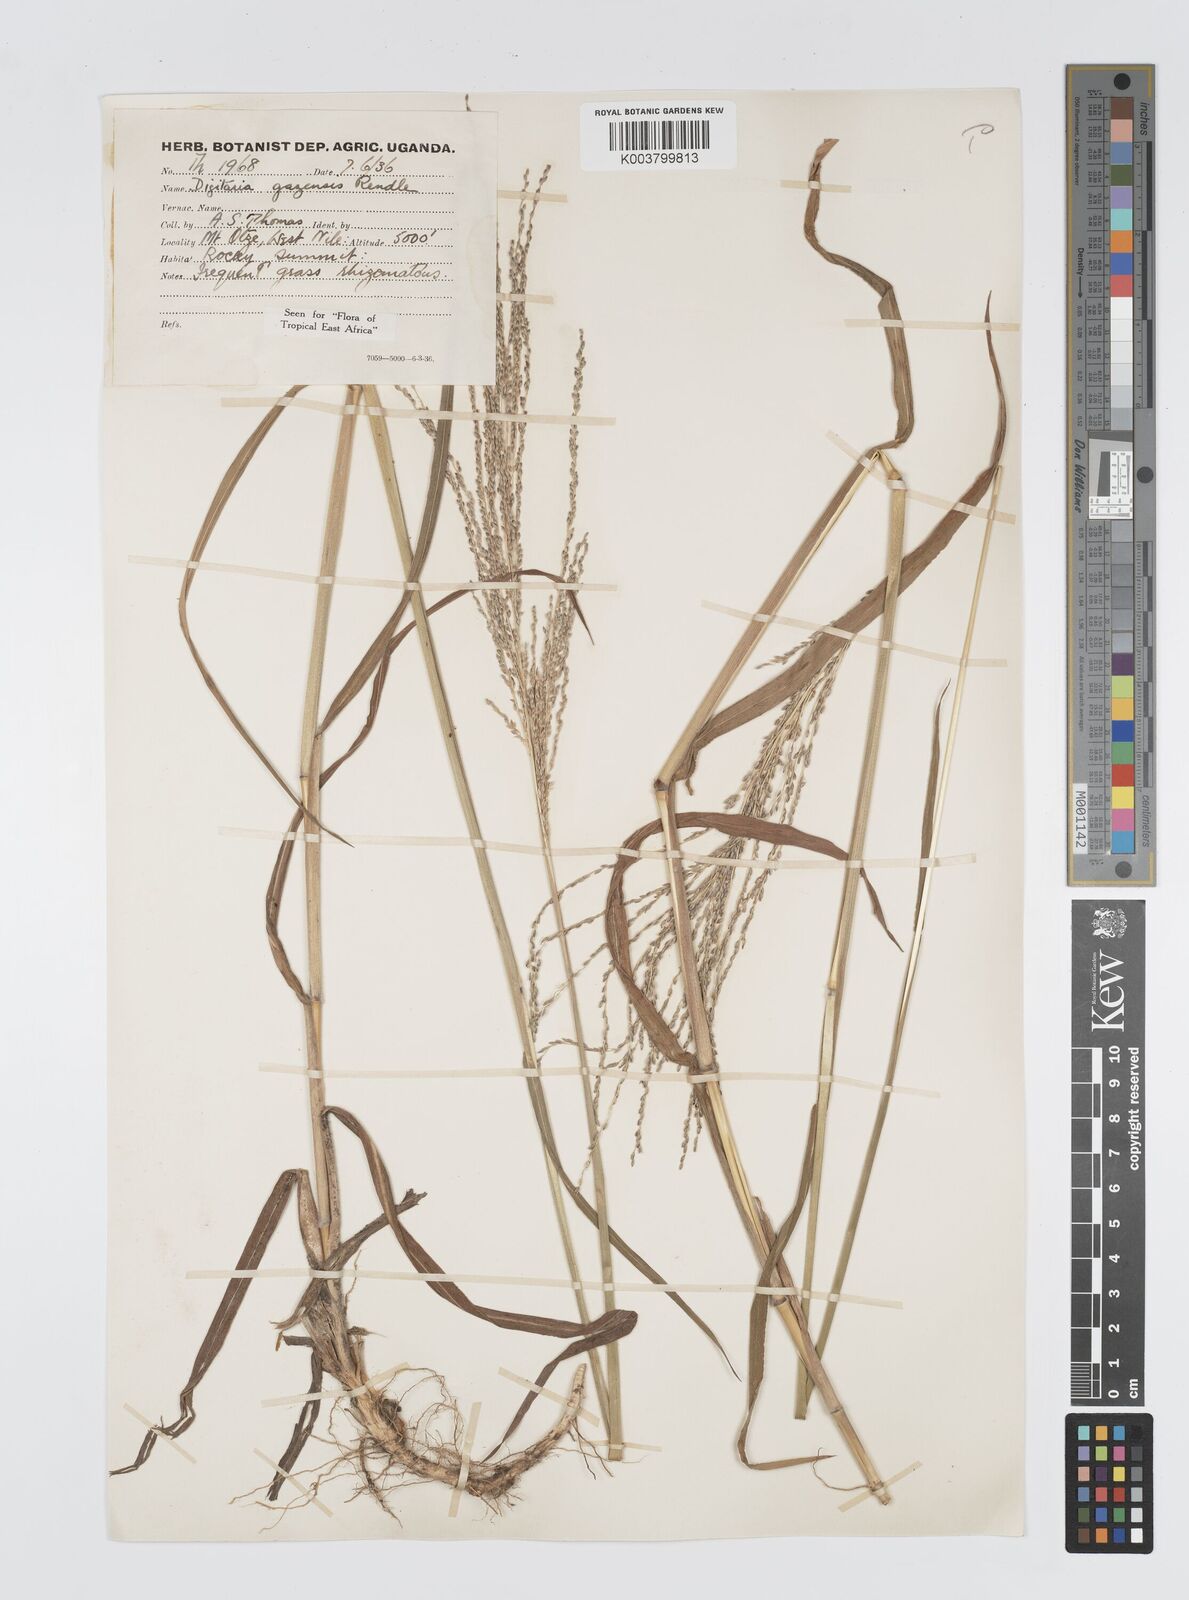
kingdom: Plantae
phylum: Tracheophyta
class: Liliopsida
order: Poales
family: Poaceae
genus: Digitaria
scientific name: Digitaria gazensis
